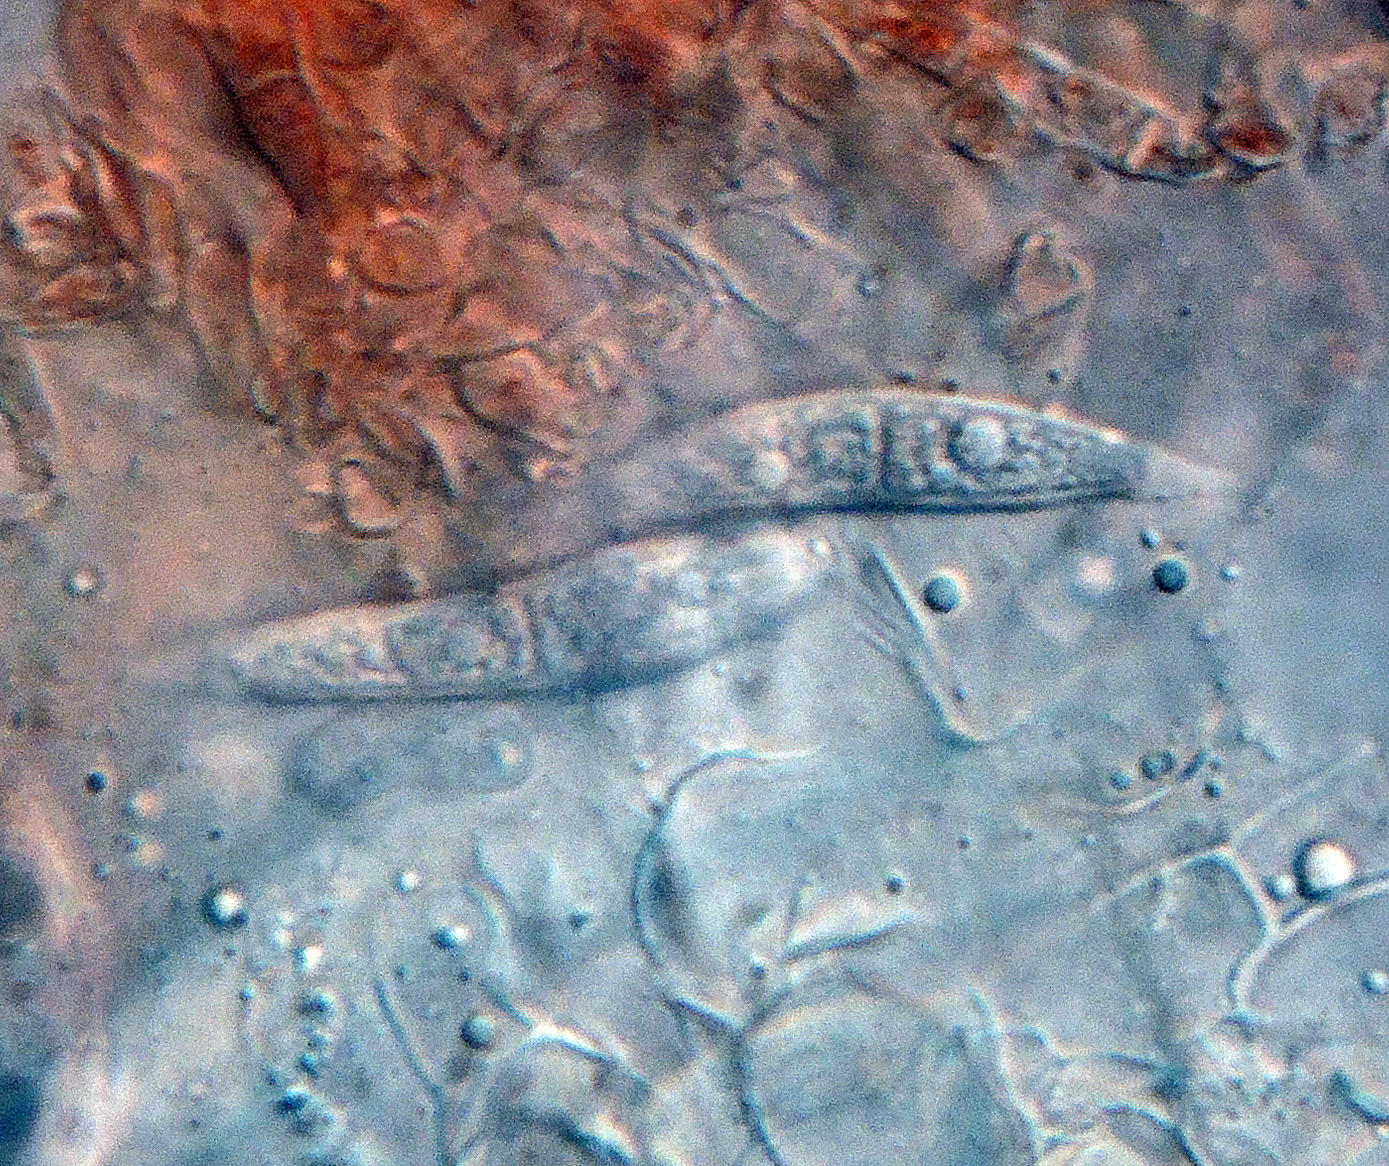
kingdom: Fungi
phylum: Ascomycota
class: Sordariomycetes
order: Hypocreales
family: Hypocreaceae
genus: Hypomyces
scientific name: Hypomyces ochraceus
